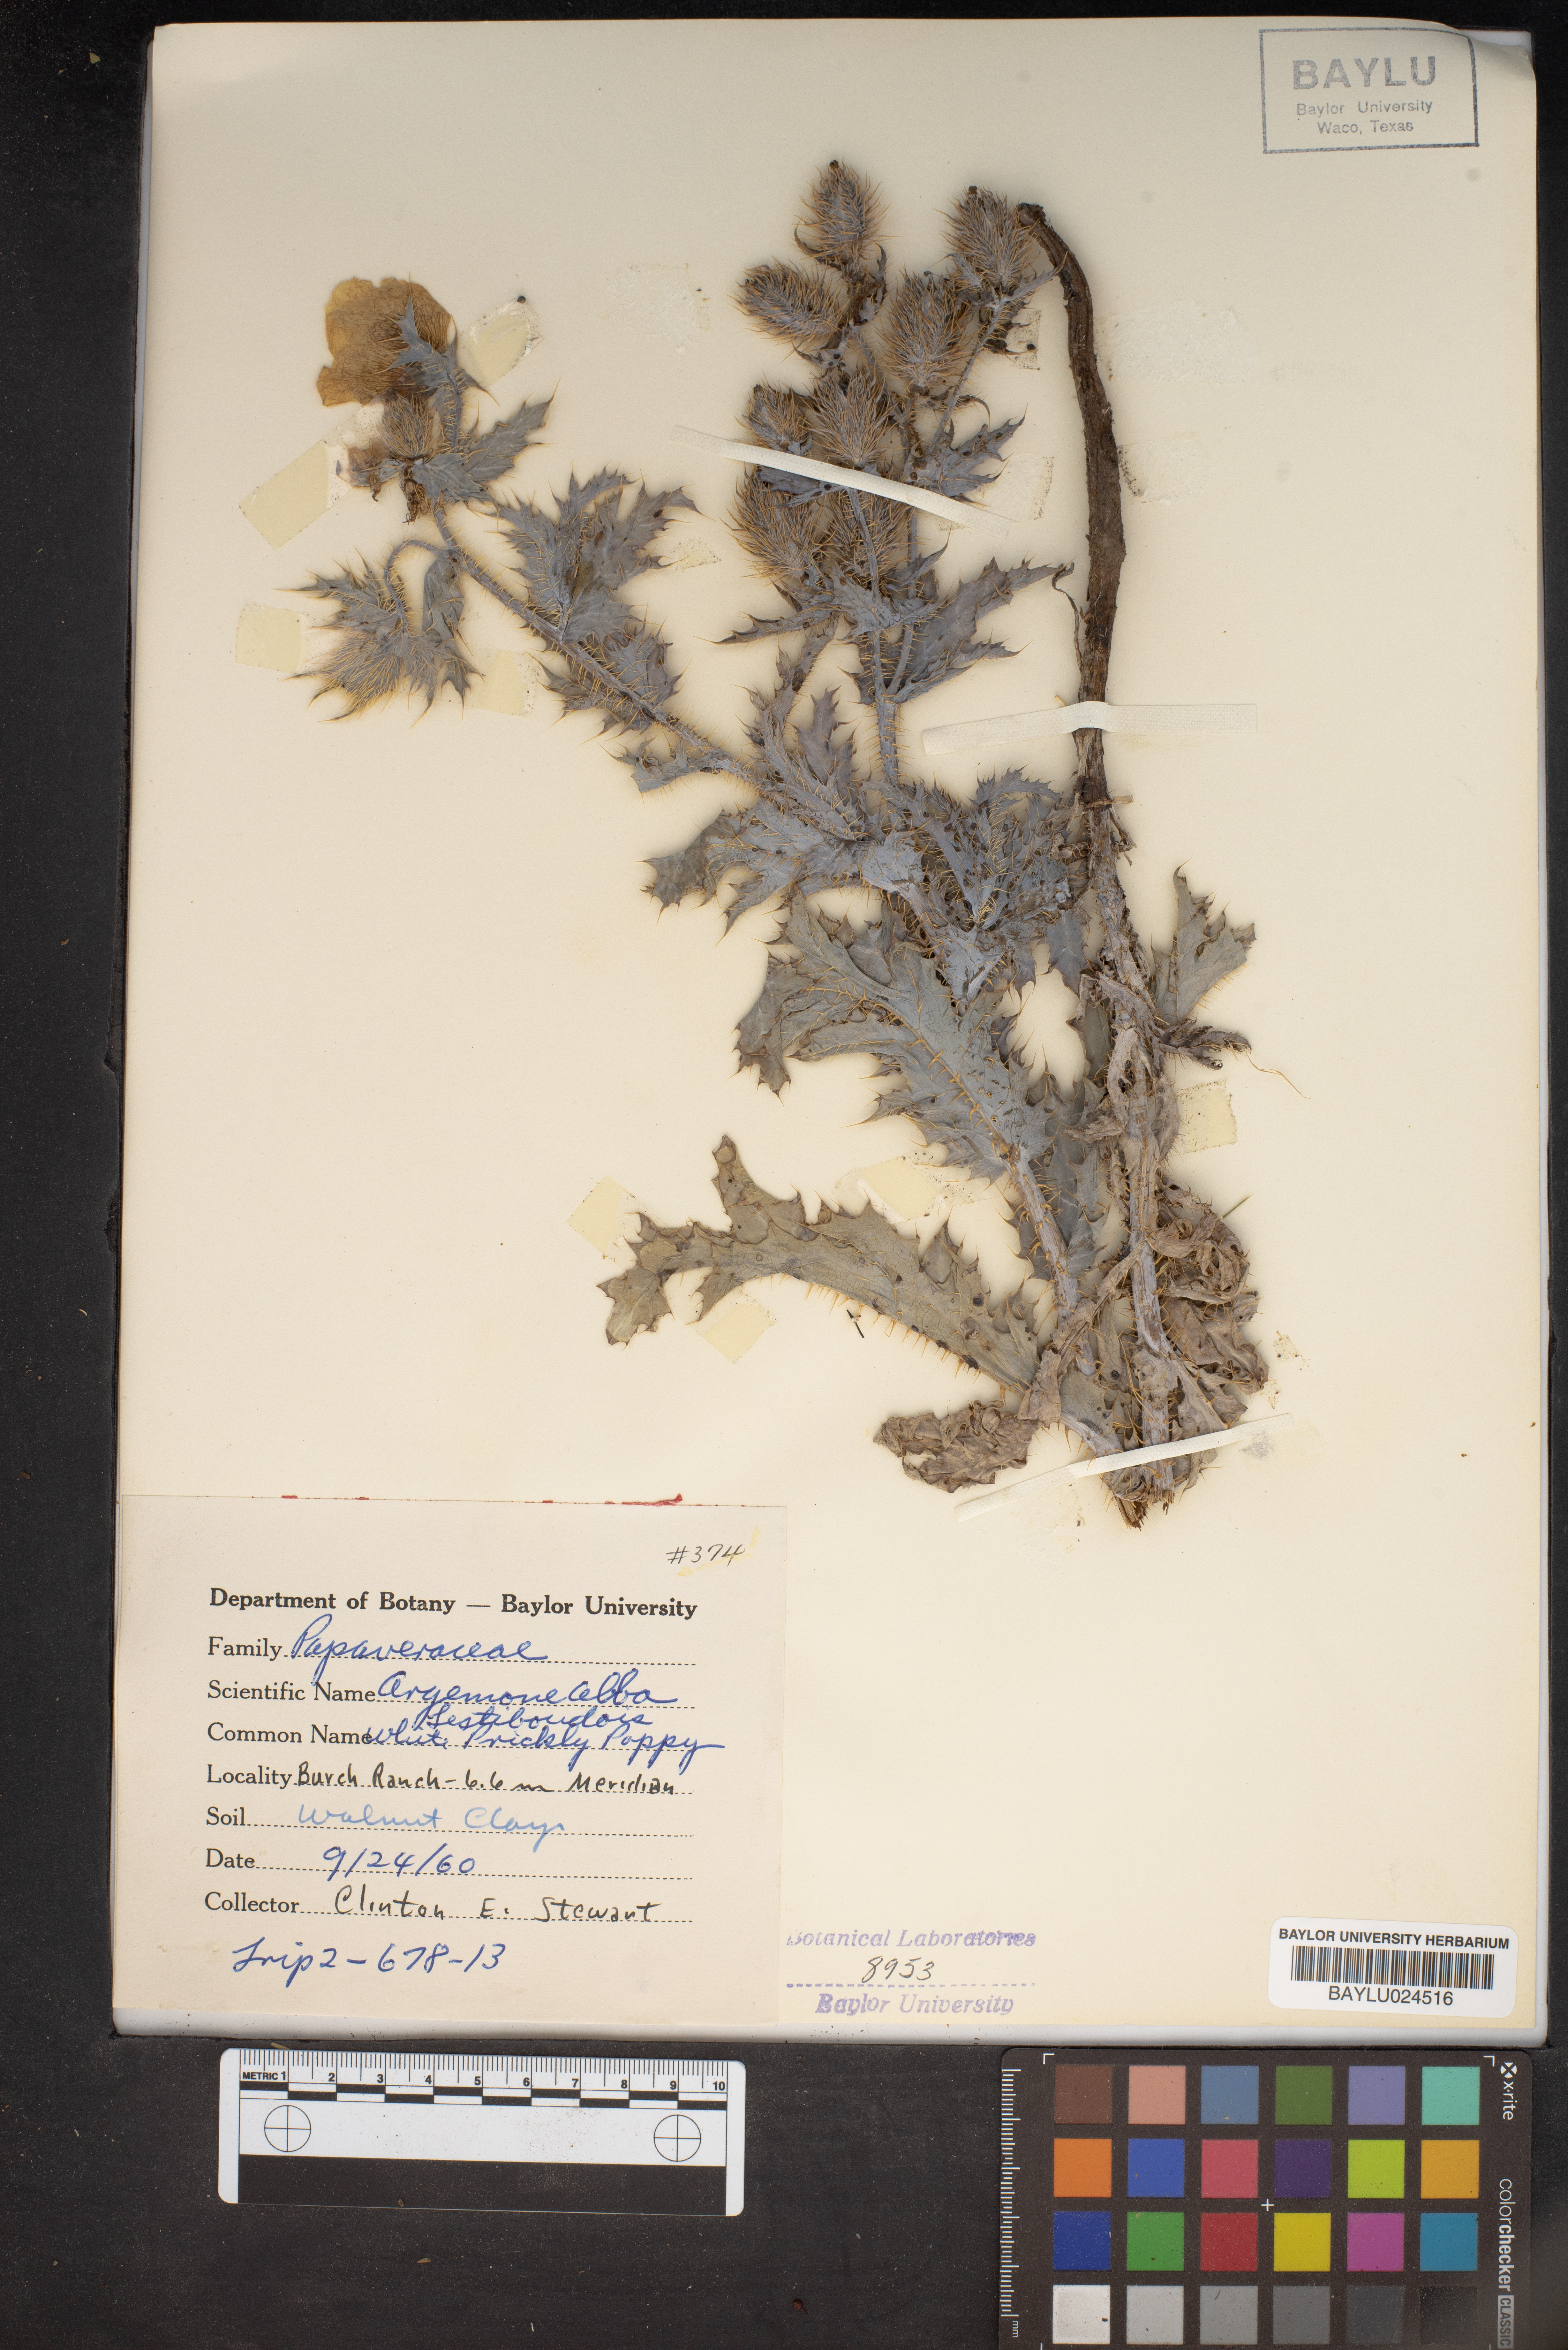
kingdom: Plantae
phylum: Tracheophyta
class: Magnoliopsida
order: Ranunculales
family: Papaveraceae
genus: Argemone
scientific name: Argemone albiflora
